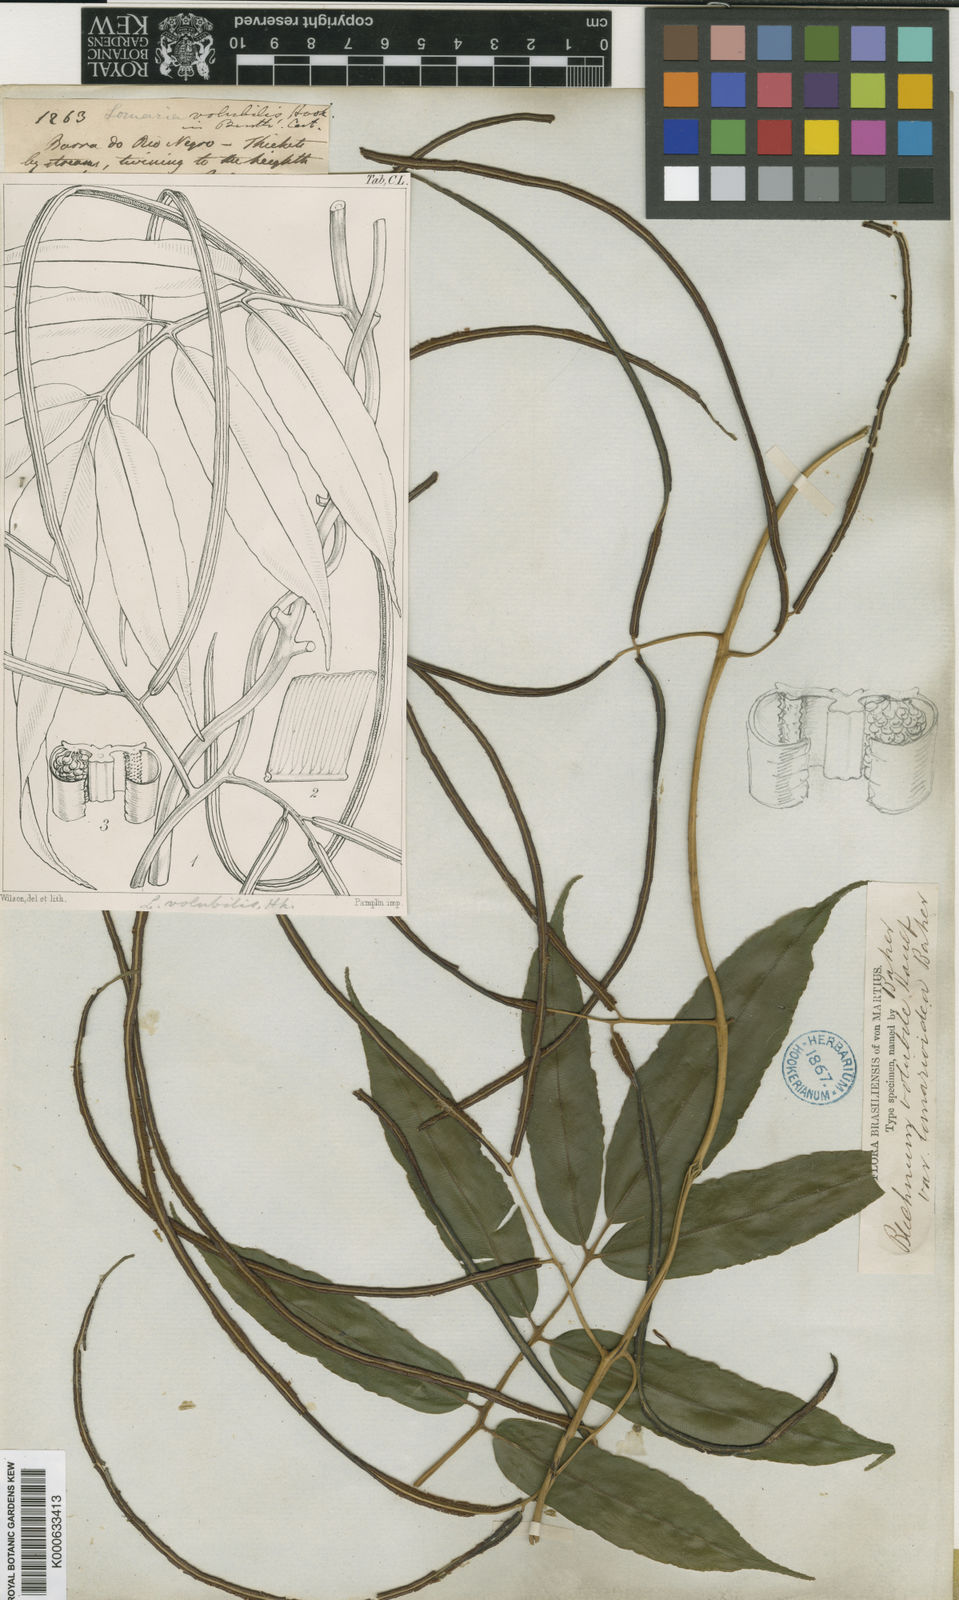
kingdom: Plantae
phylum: Tracheophyta
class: Polypodiopsida
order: Polypodiales
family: Blechnaceae
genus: Salpichlaena
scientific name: Salpichlaena volubilis
